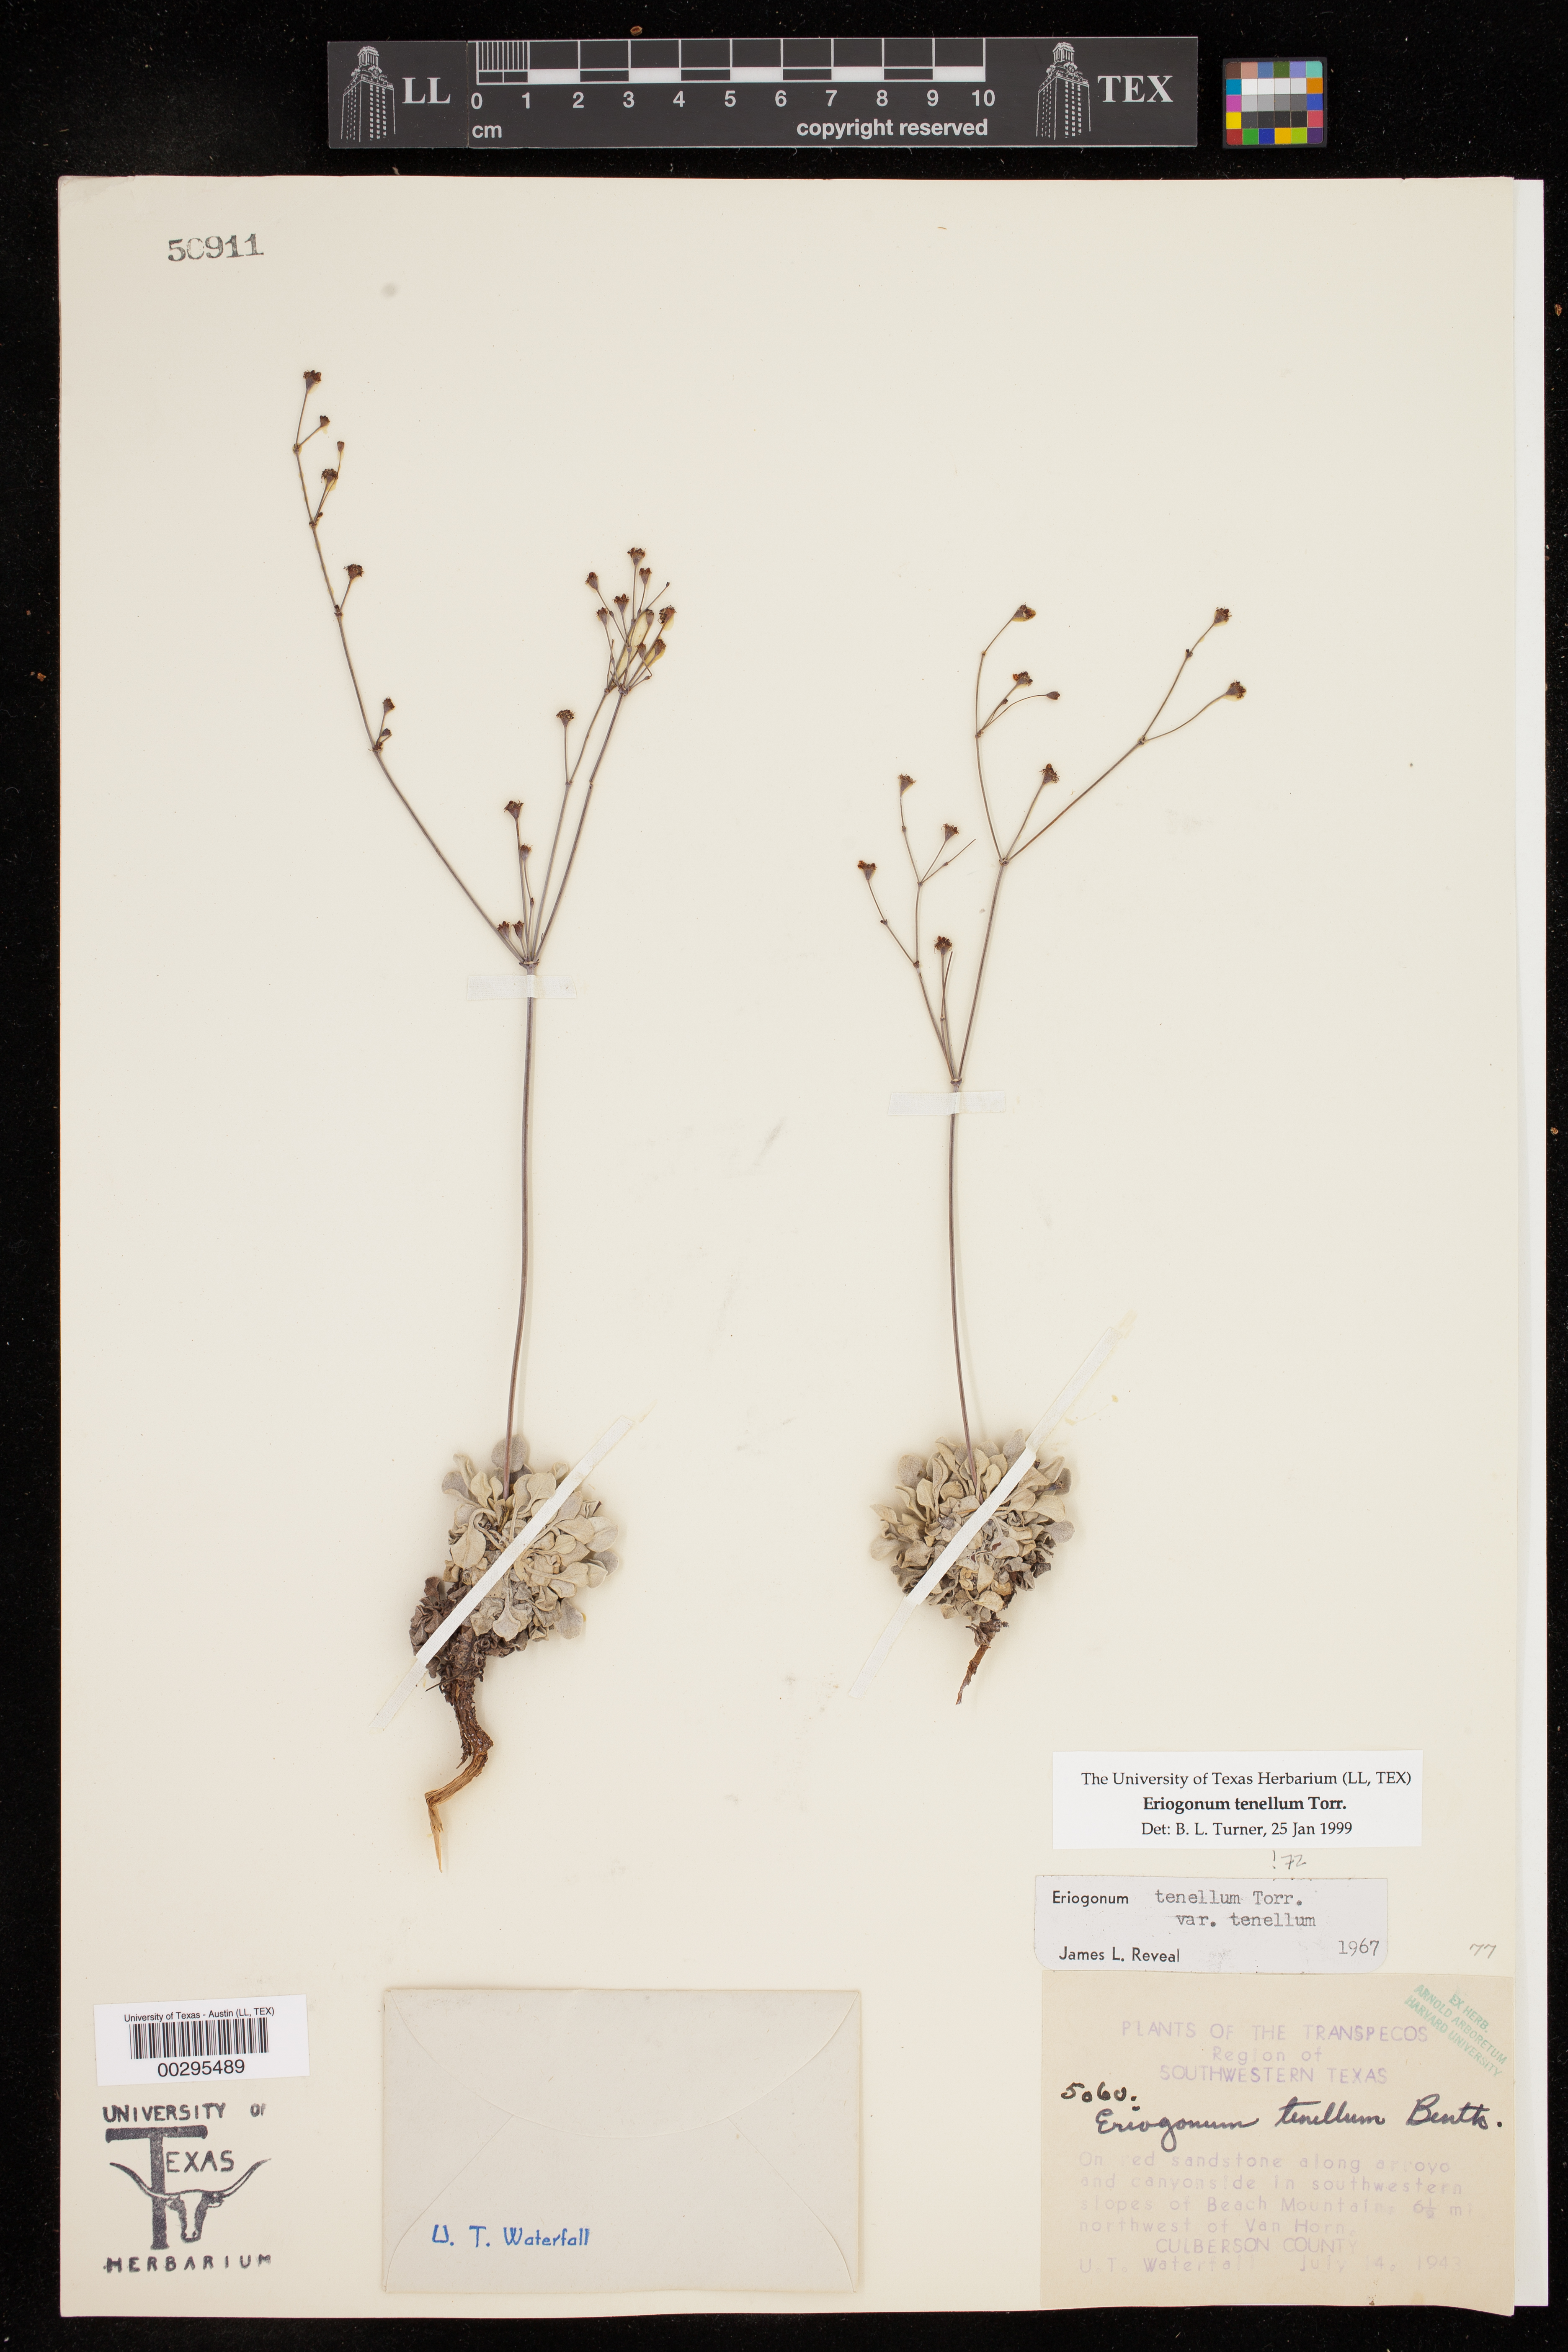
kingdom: Plantae
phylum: Tracheophyta
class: Magnoliopsida
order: Caryophyllales
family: Polygonaceae
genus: Eriogonum
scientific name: Eriogonum tenellum
